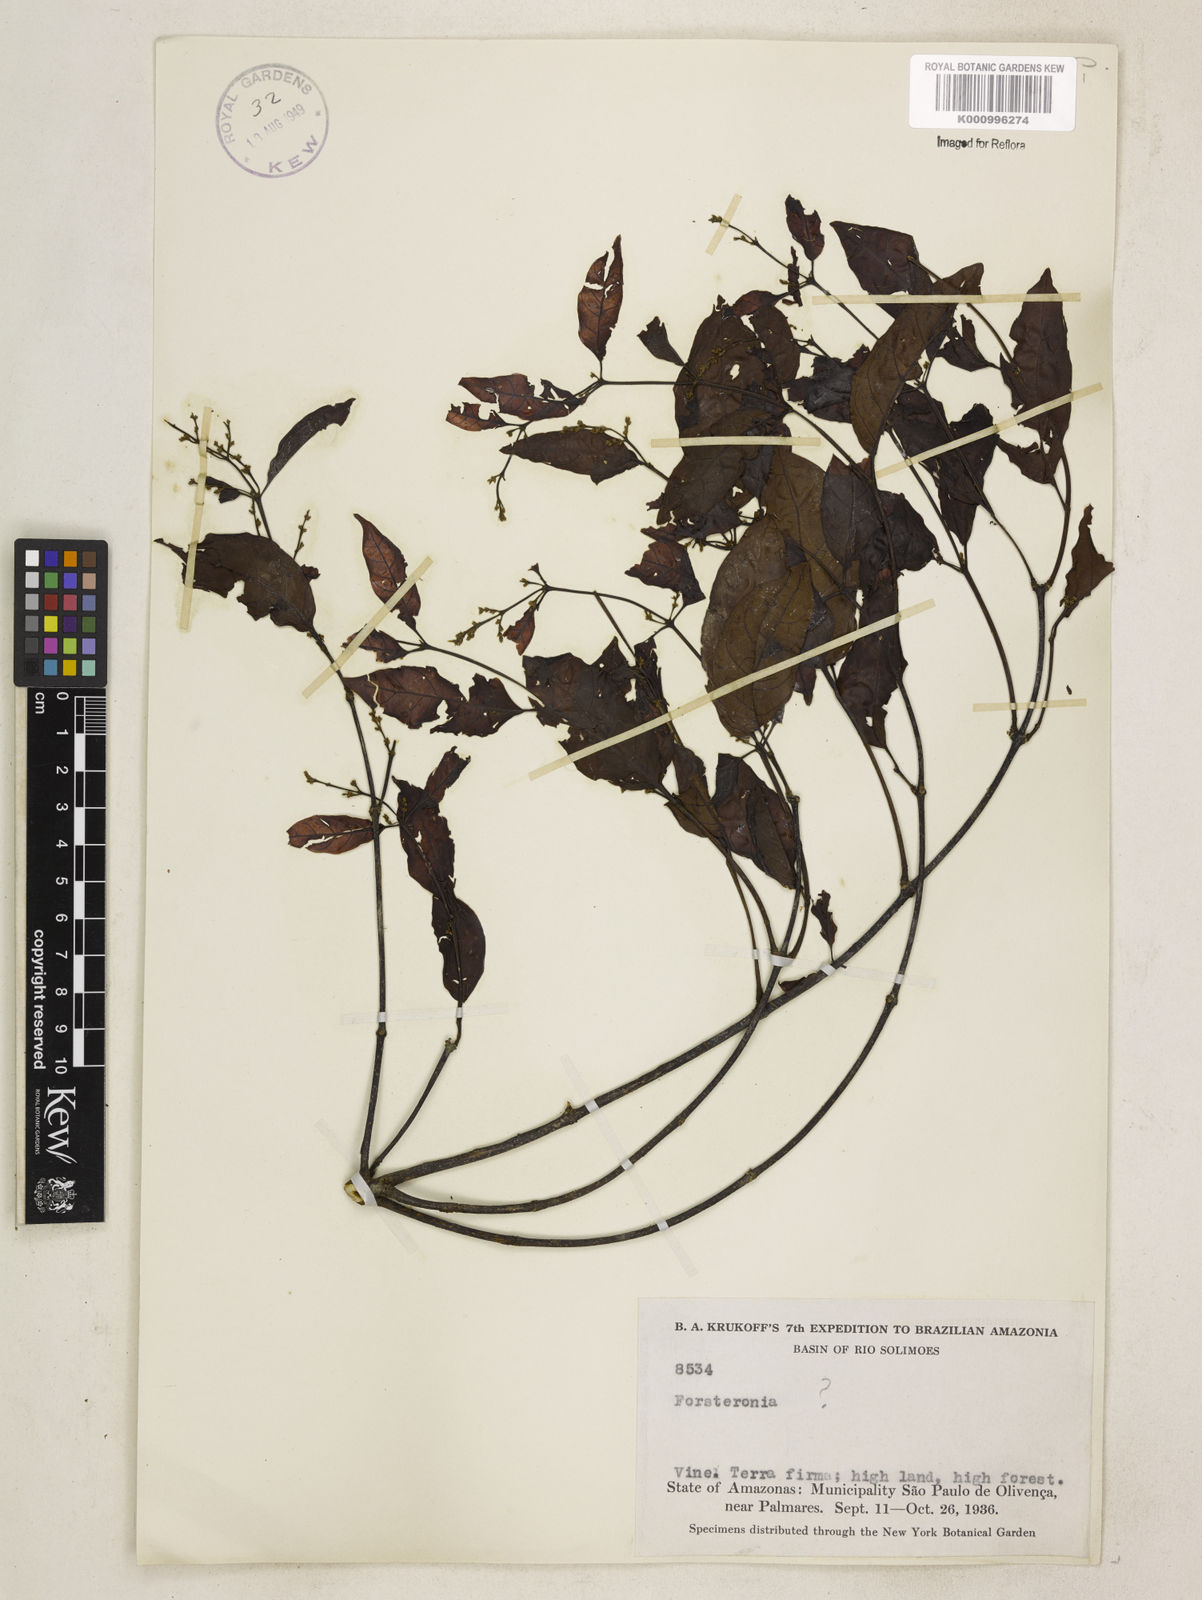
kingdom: Plantae
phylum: Tracheophyta
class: Magnoliopsida
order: Gentianales
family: Apocynaceae
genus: Forsteronia
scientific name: Forsteronia
